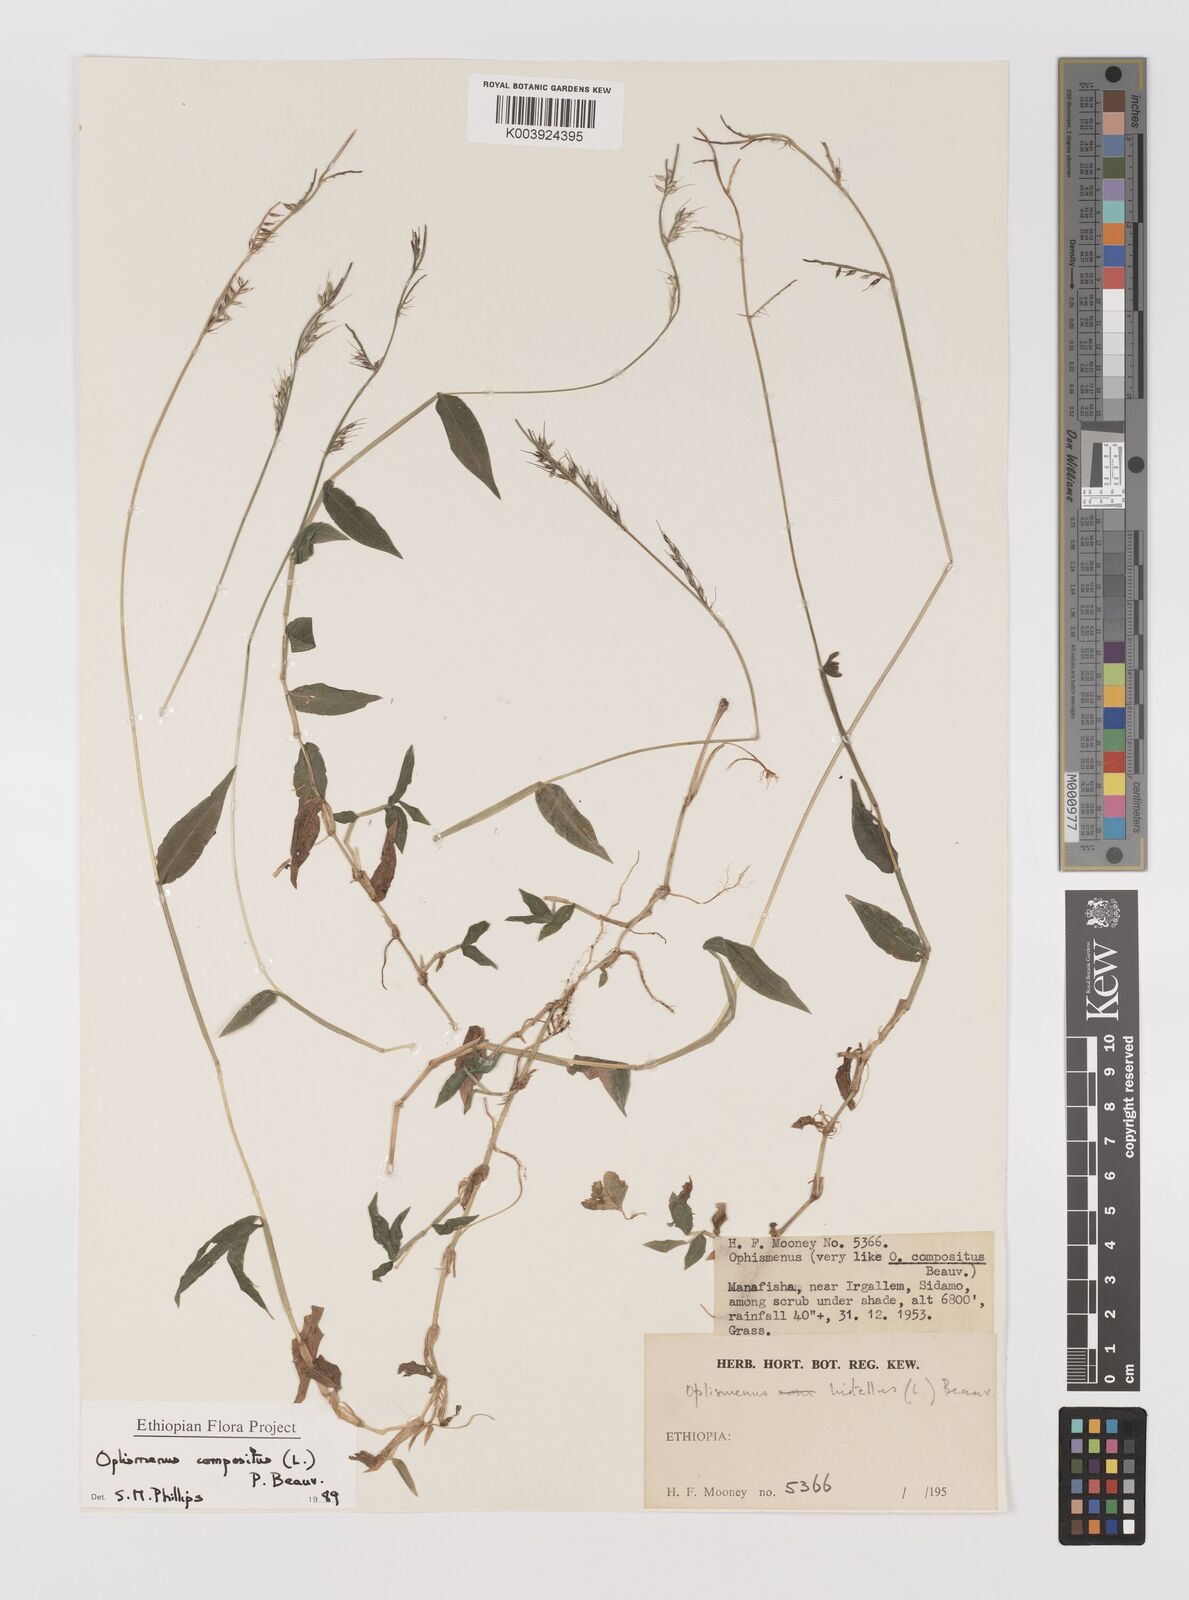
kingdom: Plantae
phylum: Tracheophyta
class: Liliopsida
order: Poales
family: Poaceae
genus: Oplismenus
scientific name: Oplismenus compositus
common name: Running mountain grass
